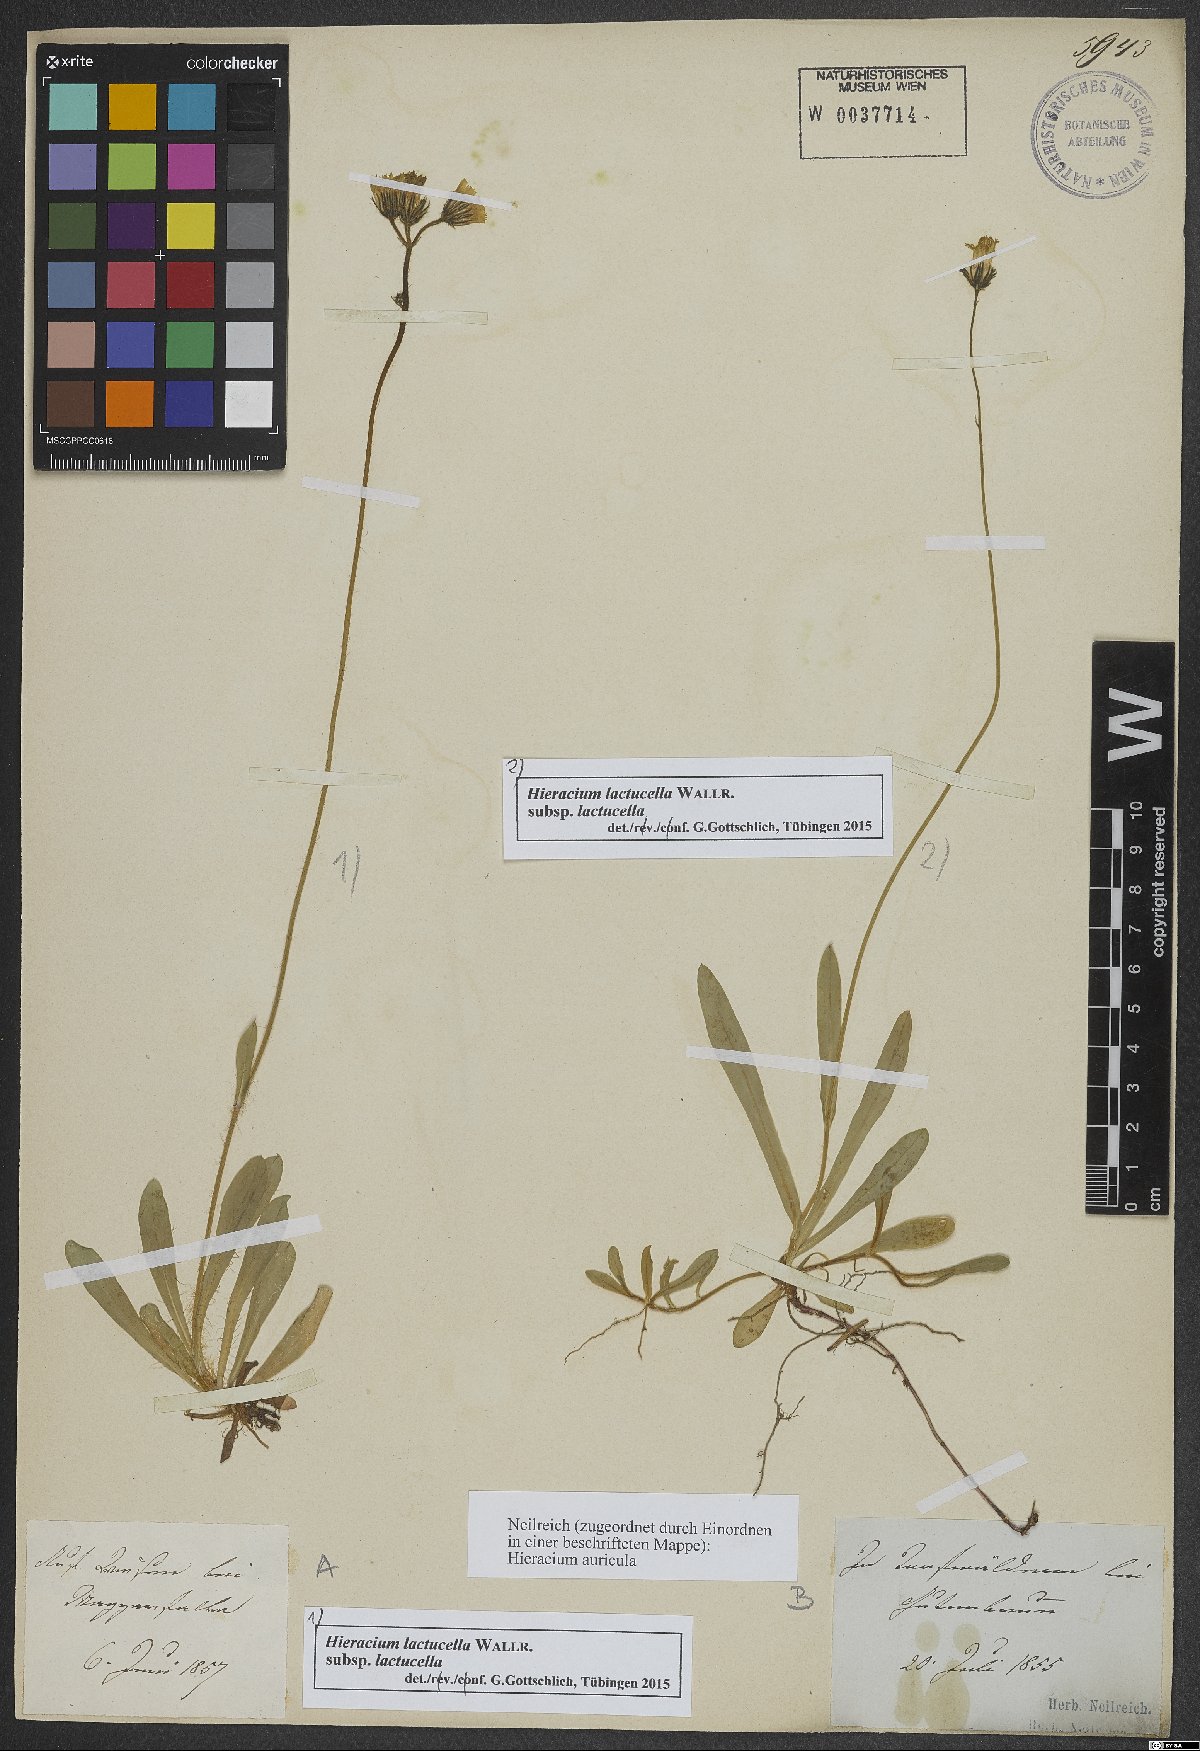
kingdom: Plantae
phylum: Tracheophyta
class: Magnoliopsida
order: Asterales
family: Asteraceae
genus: Pilosella
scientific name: Pilosella lactucella
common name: Glaucous fox-and-cubs
